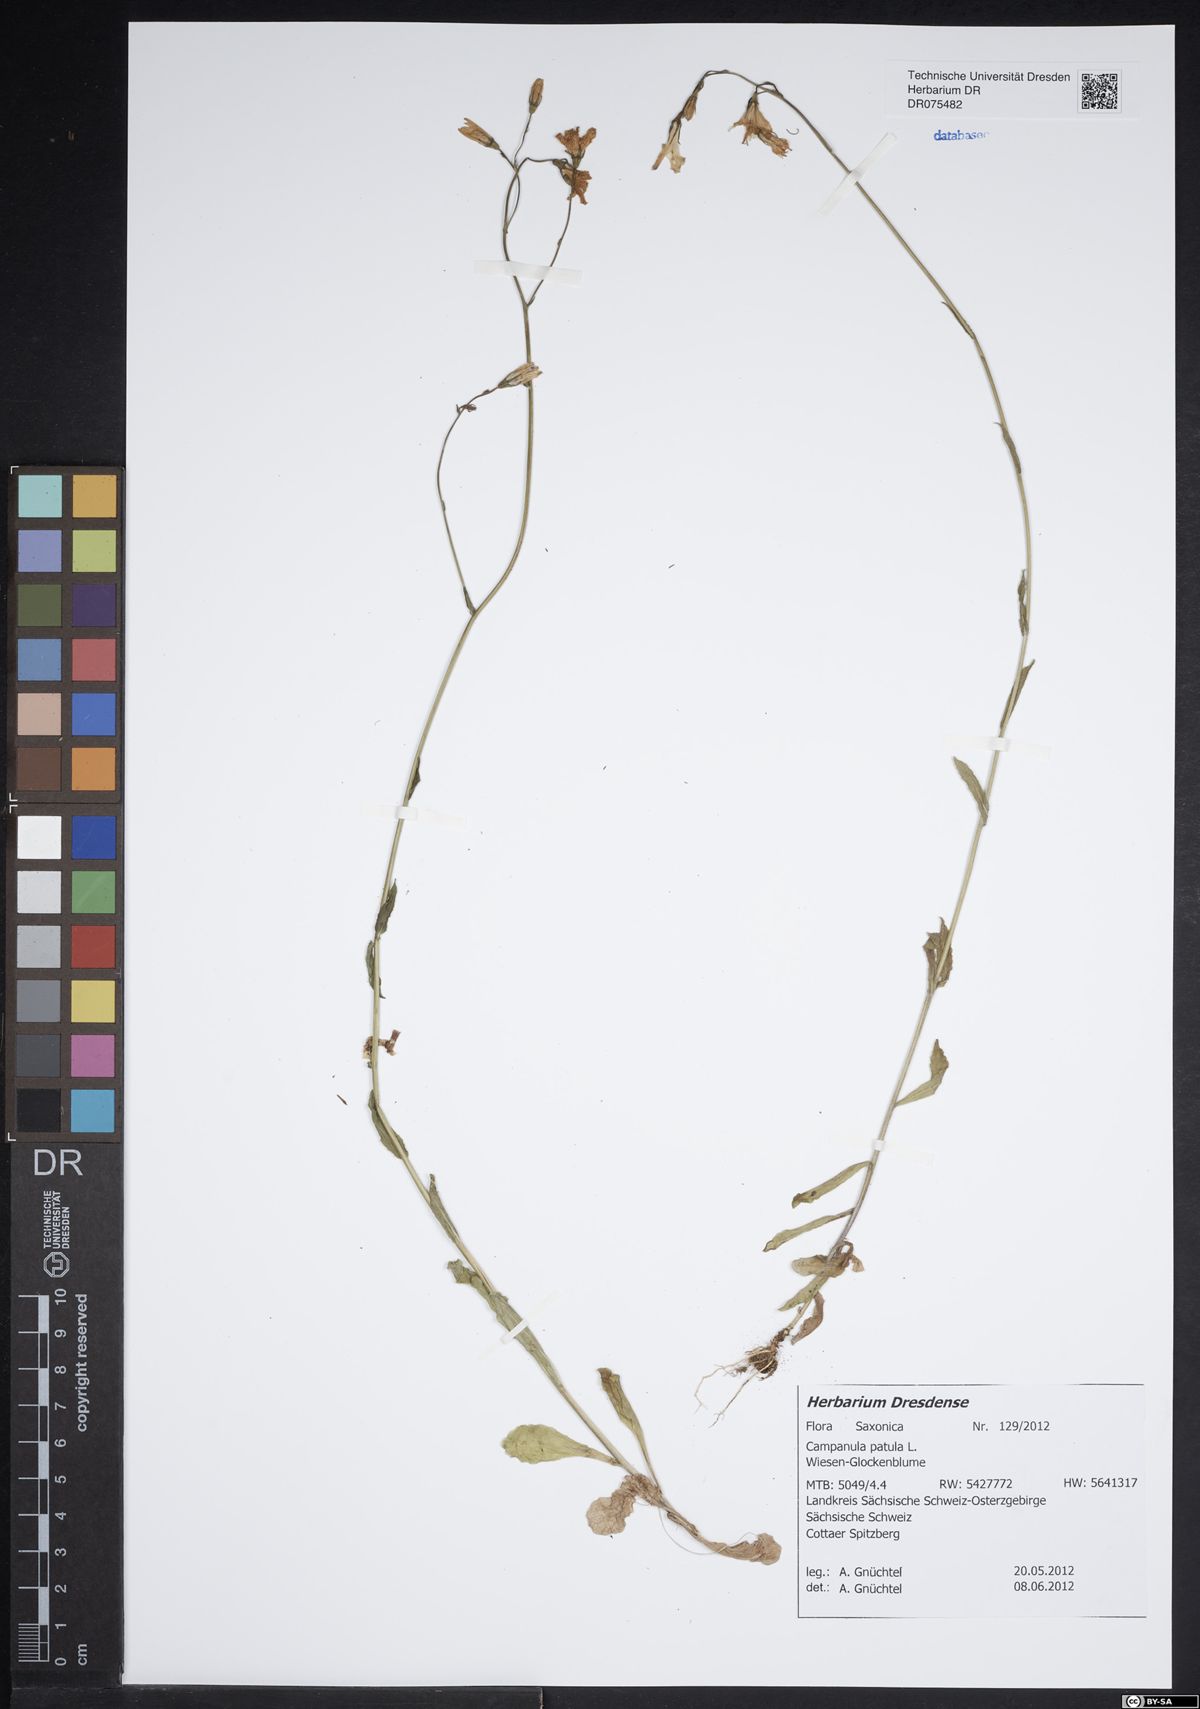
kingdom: Plantae
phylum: Tracheophyta
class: Magnoliopsida
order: Asterales
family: Campanulaceae
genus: Campanula
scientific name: Campanula patula
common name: Spreading bellflower
